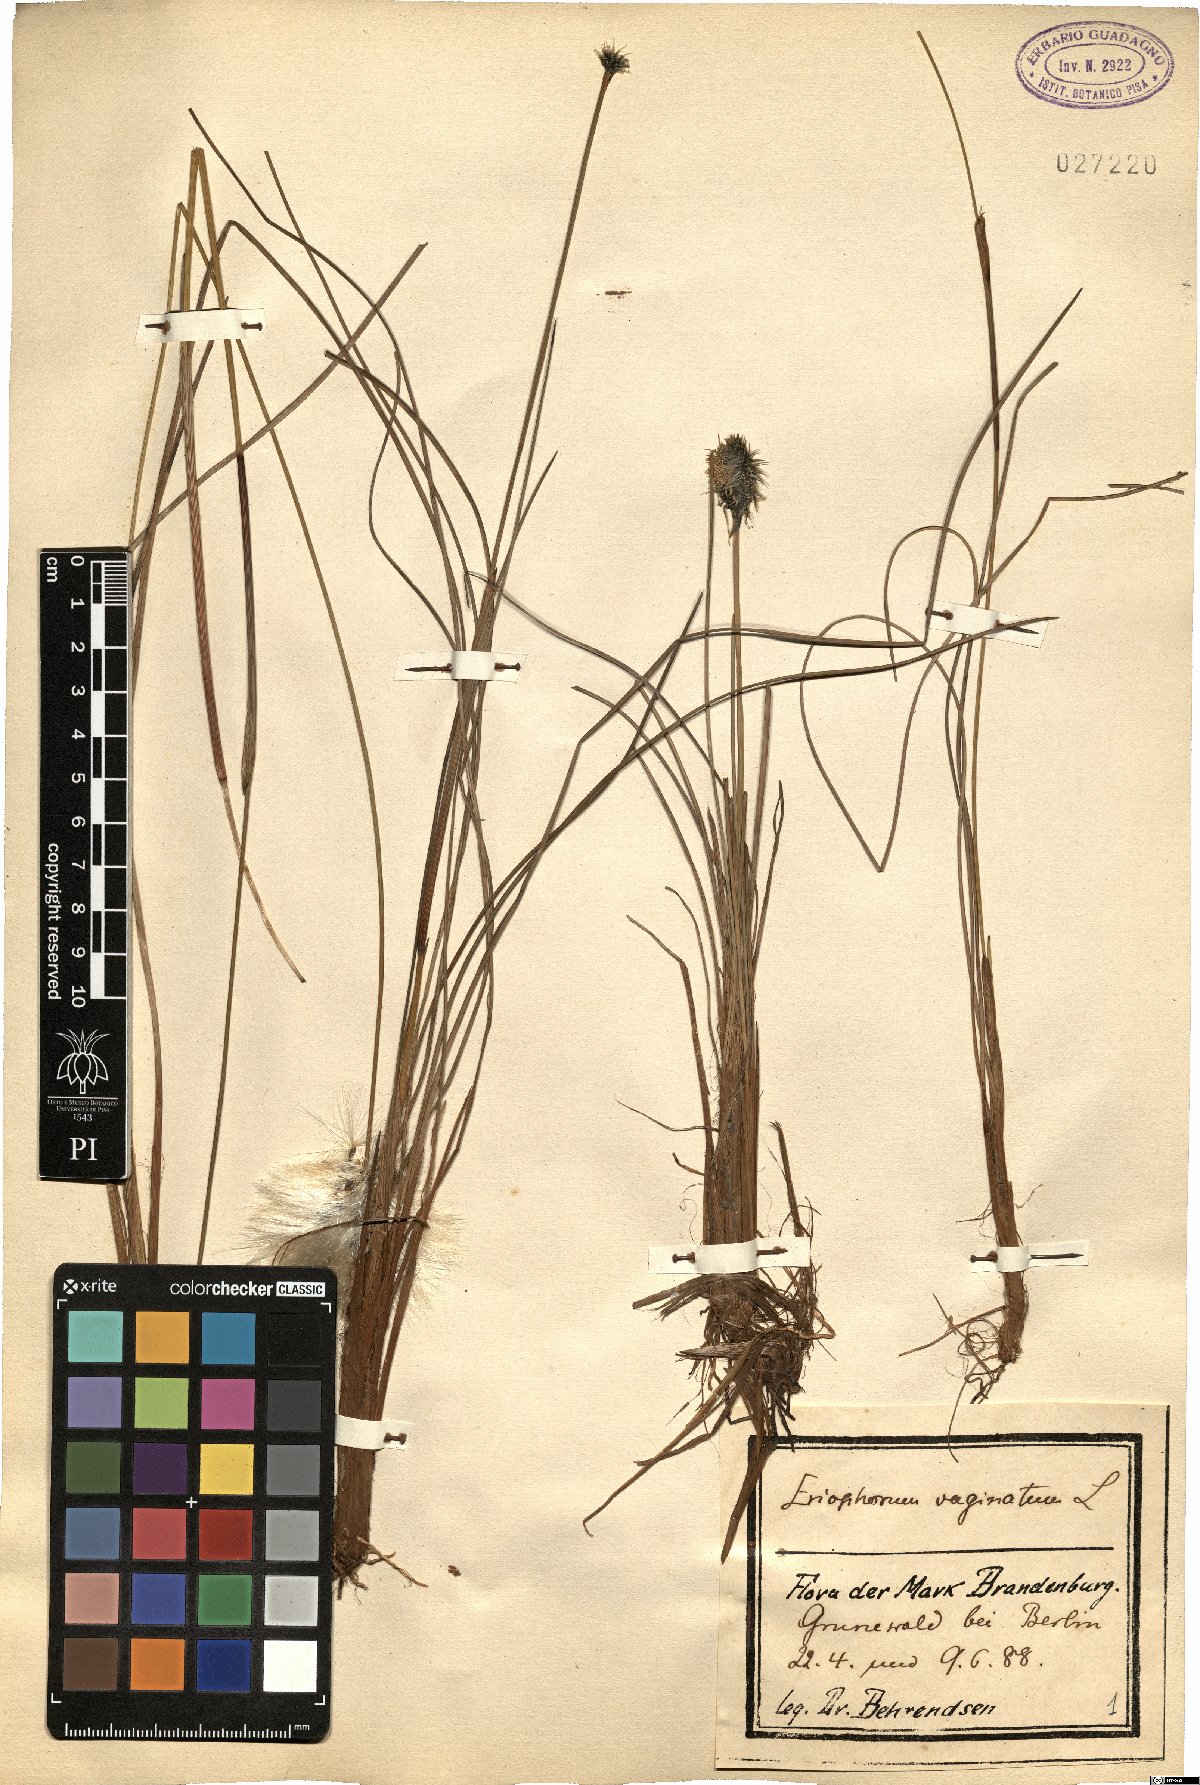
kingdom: Plantae
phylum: Tracheophyta
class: Liliopsida
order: Poales
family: Cyperaceae
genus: Eriophorum
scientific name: Eriophorum vaginatum
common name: Hare's-tail cottongrass
